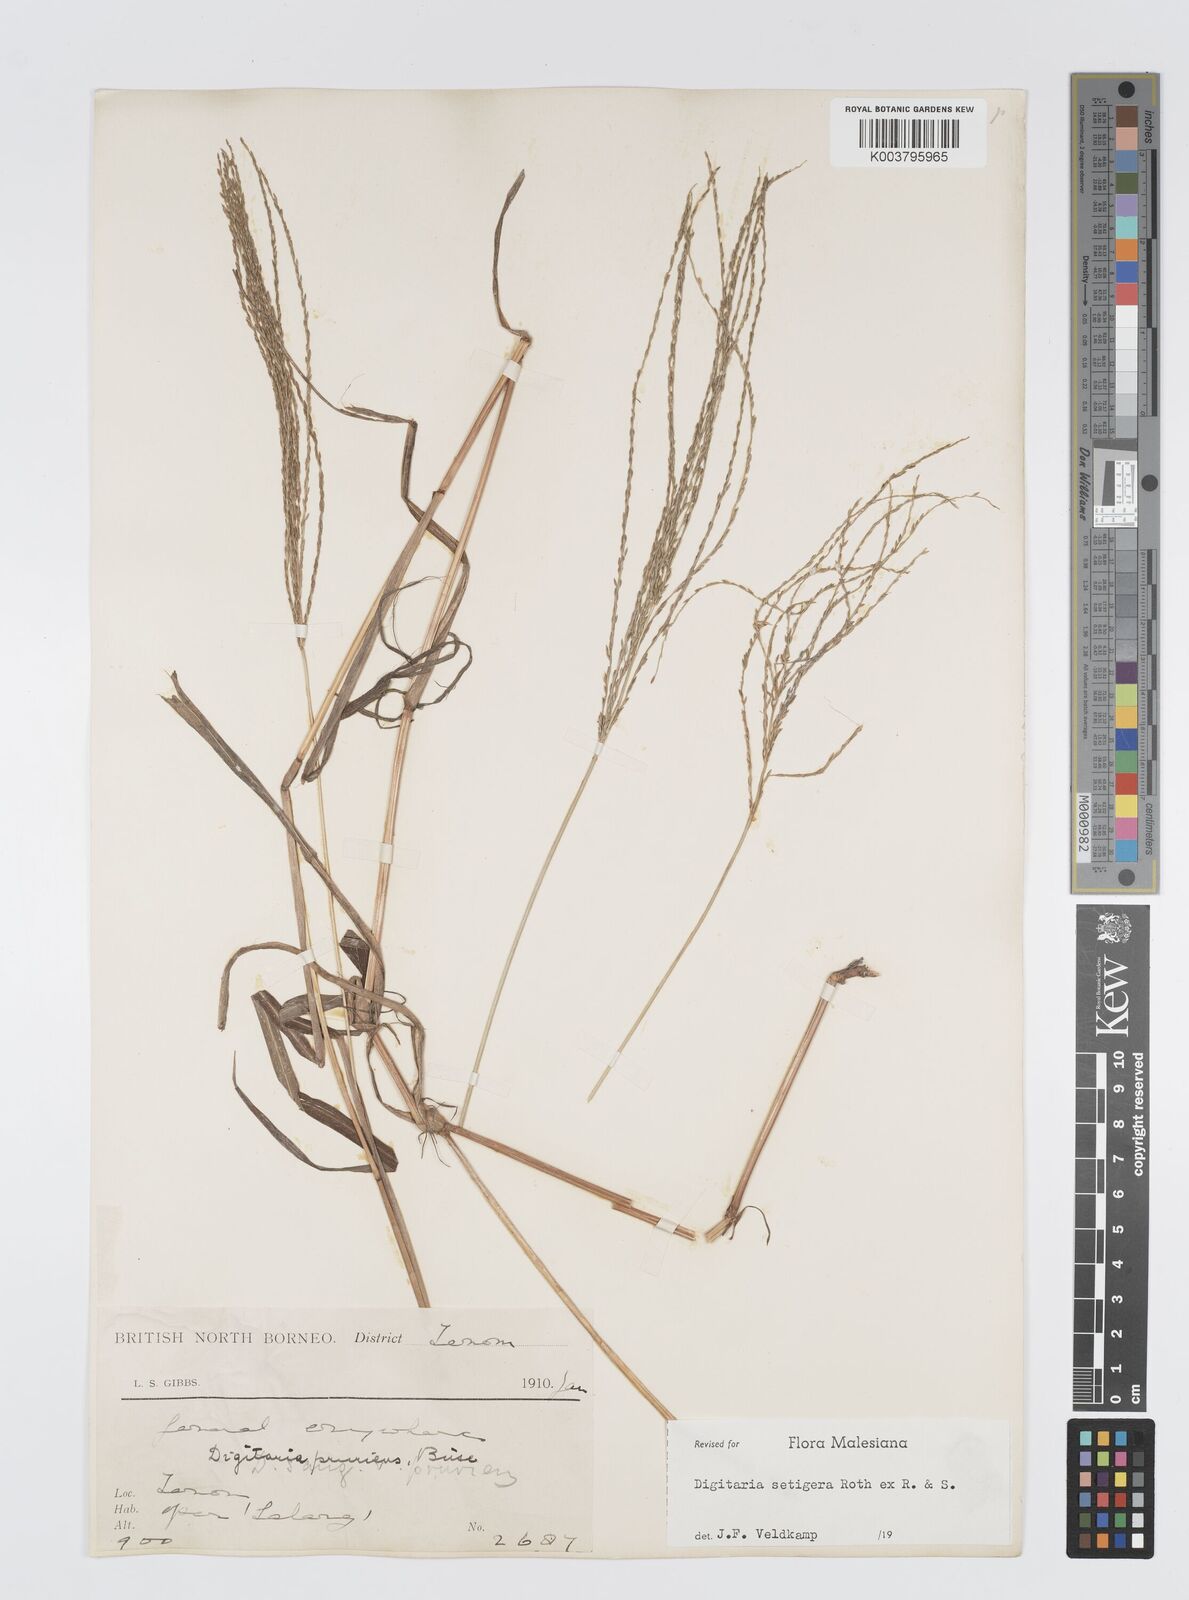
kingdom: Plantae
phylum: Tracheophyta
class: Liliopsida
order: Poales
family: Poaceae
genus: Digitaria
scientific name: Digitaria setigera
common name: East indian crabgrass
